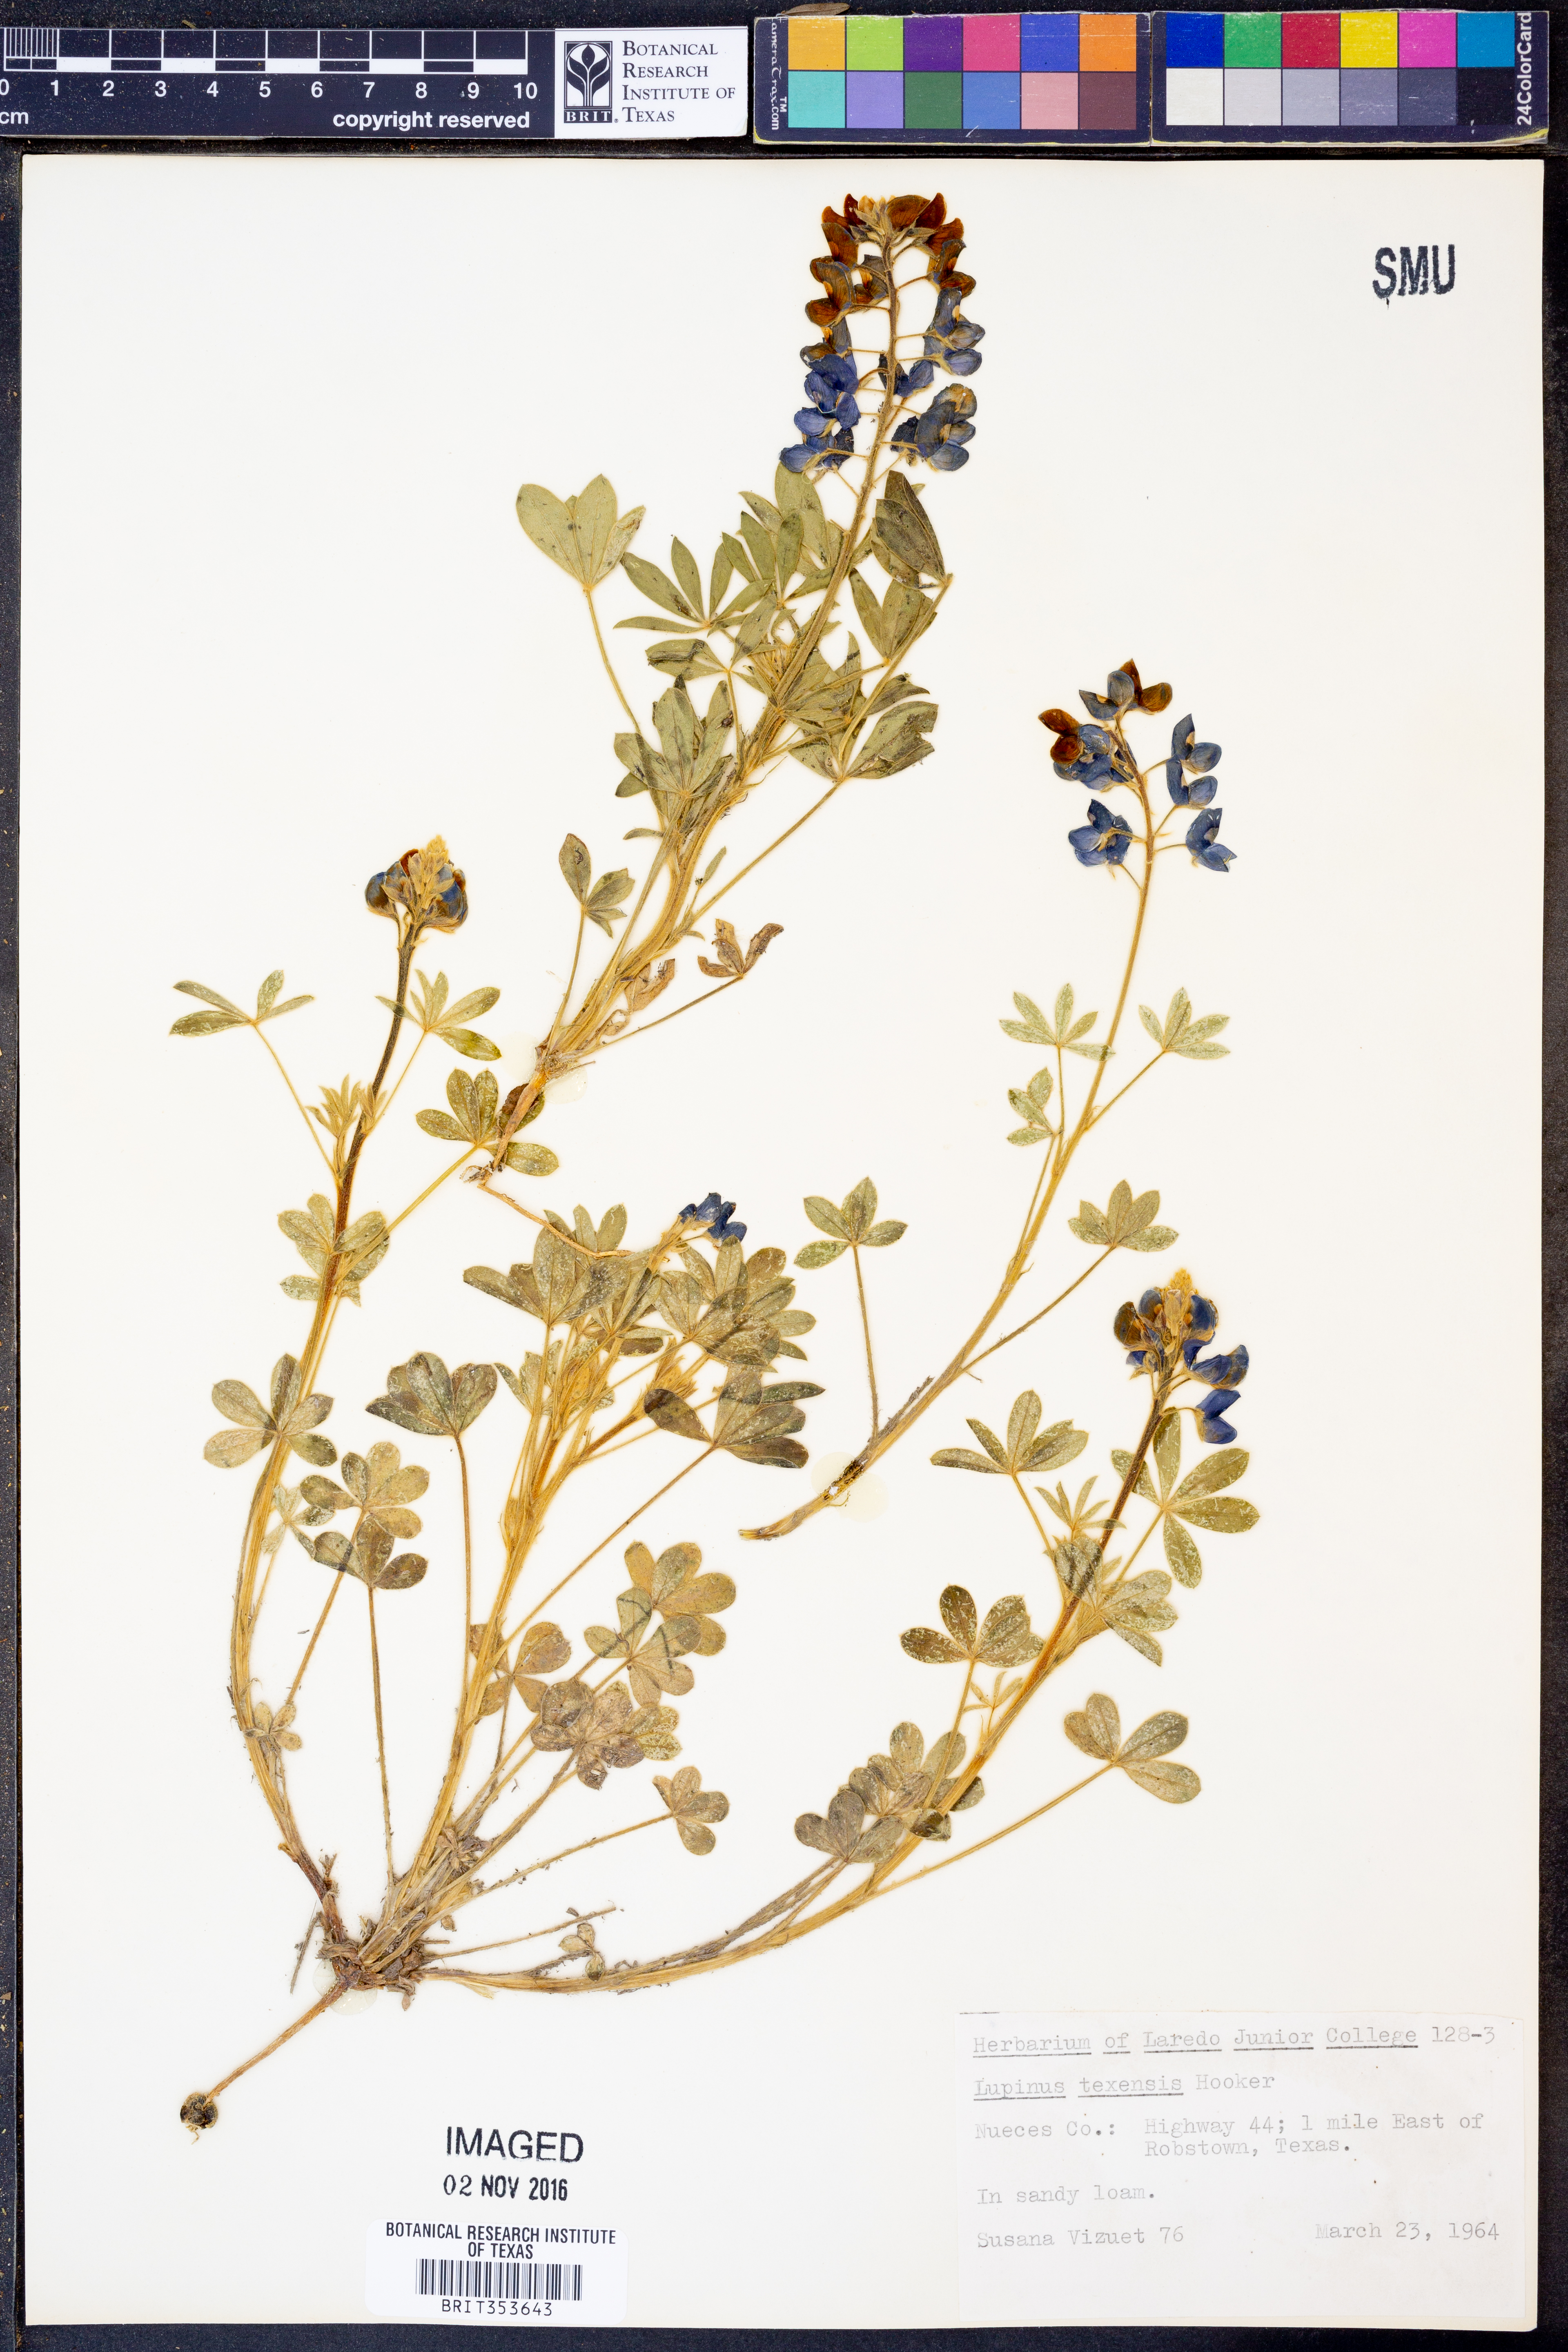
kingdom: Plantae
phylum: Tracheophyta
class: Magnoliopsida
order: Fabales
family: Fabaceae
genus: Lupinus
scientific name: Lupinus texensis
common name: Texas bluebonnet
